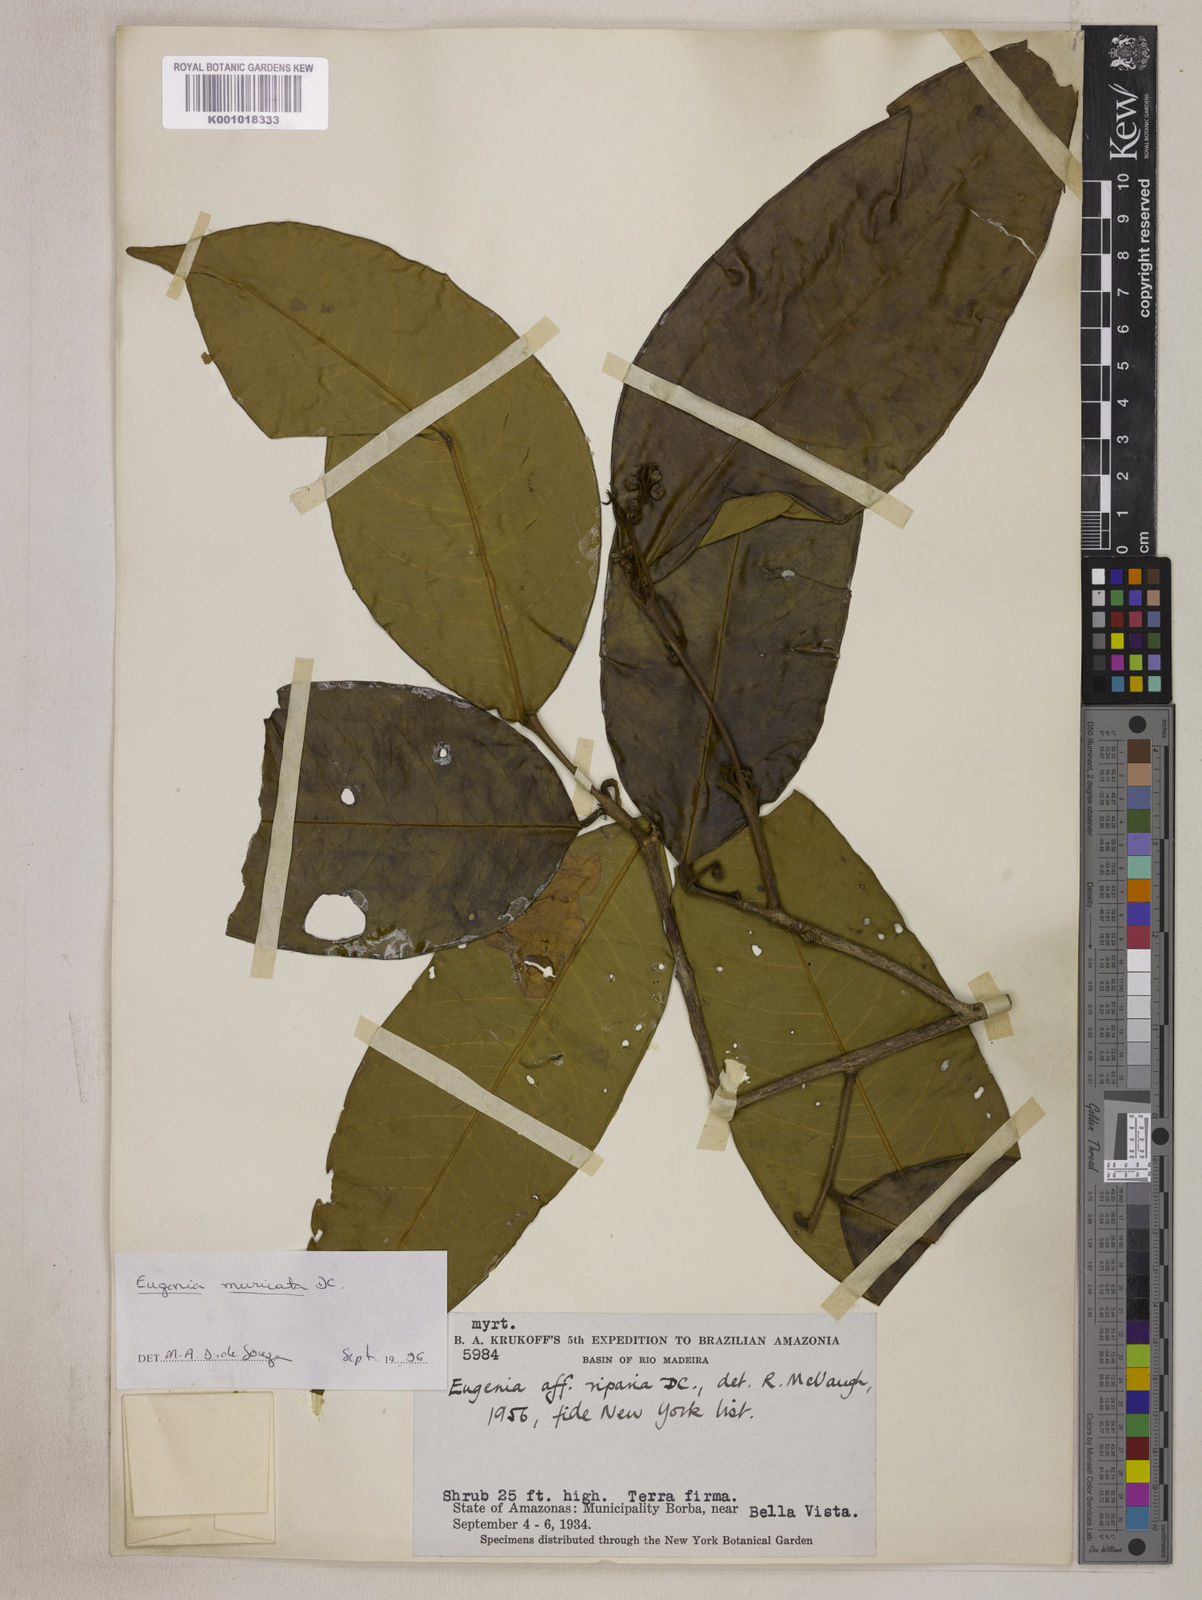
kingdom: Plantae
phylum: Tracheophyta
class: Magnoliopsida
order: Myrtales
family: Myrtaceae
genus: Eugenia
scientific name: Eugenia muricata
